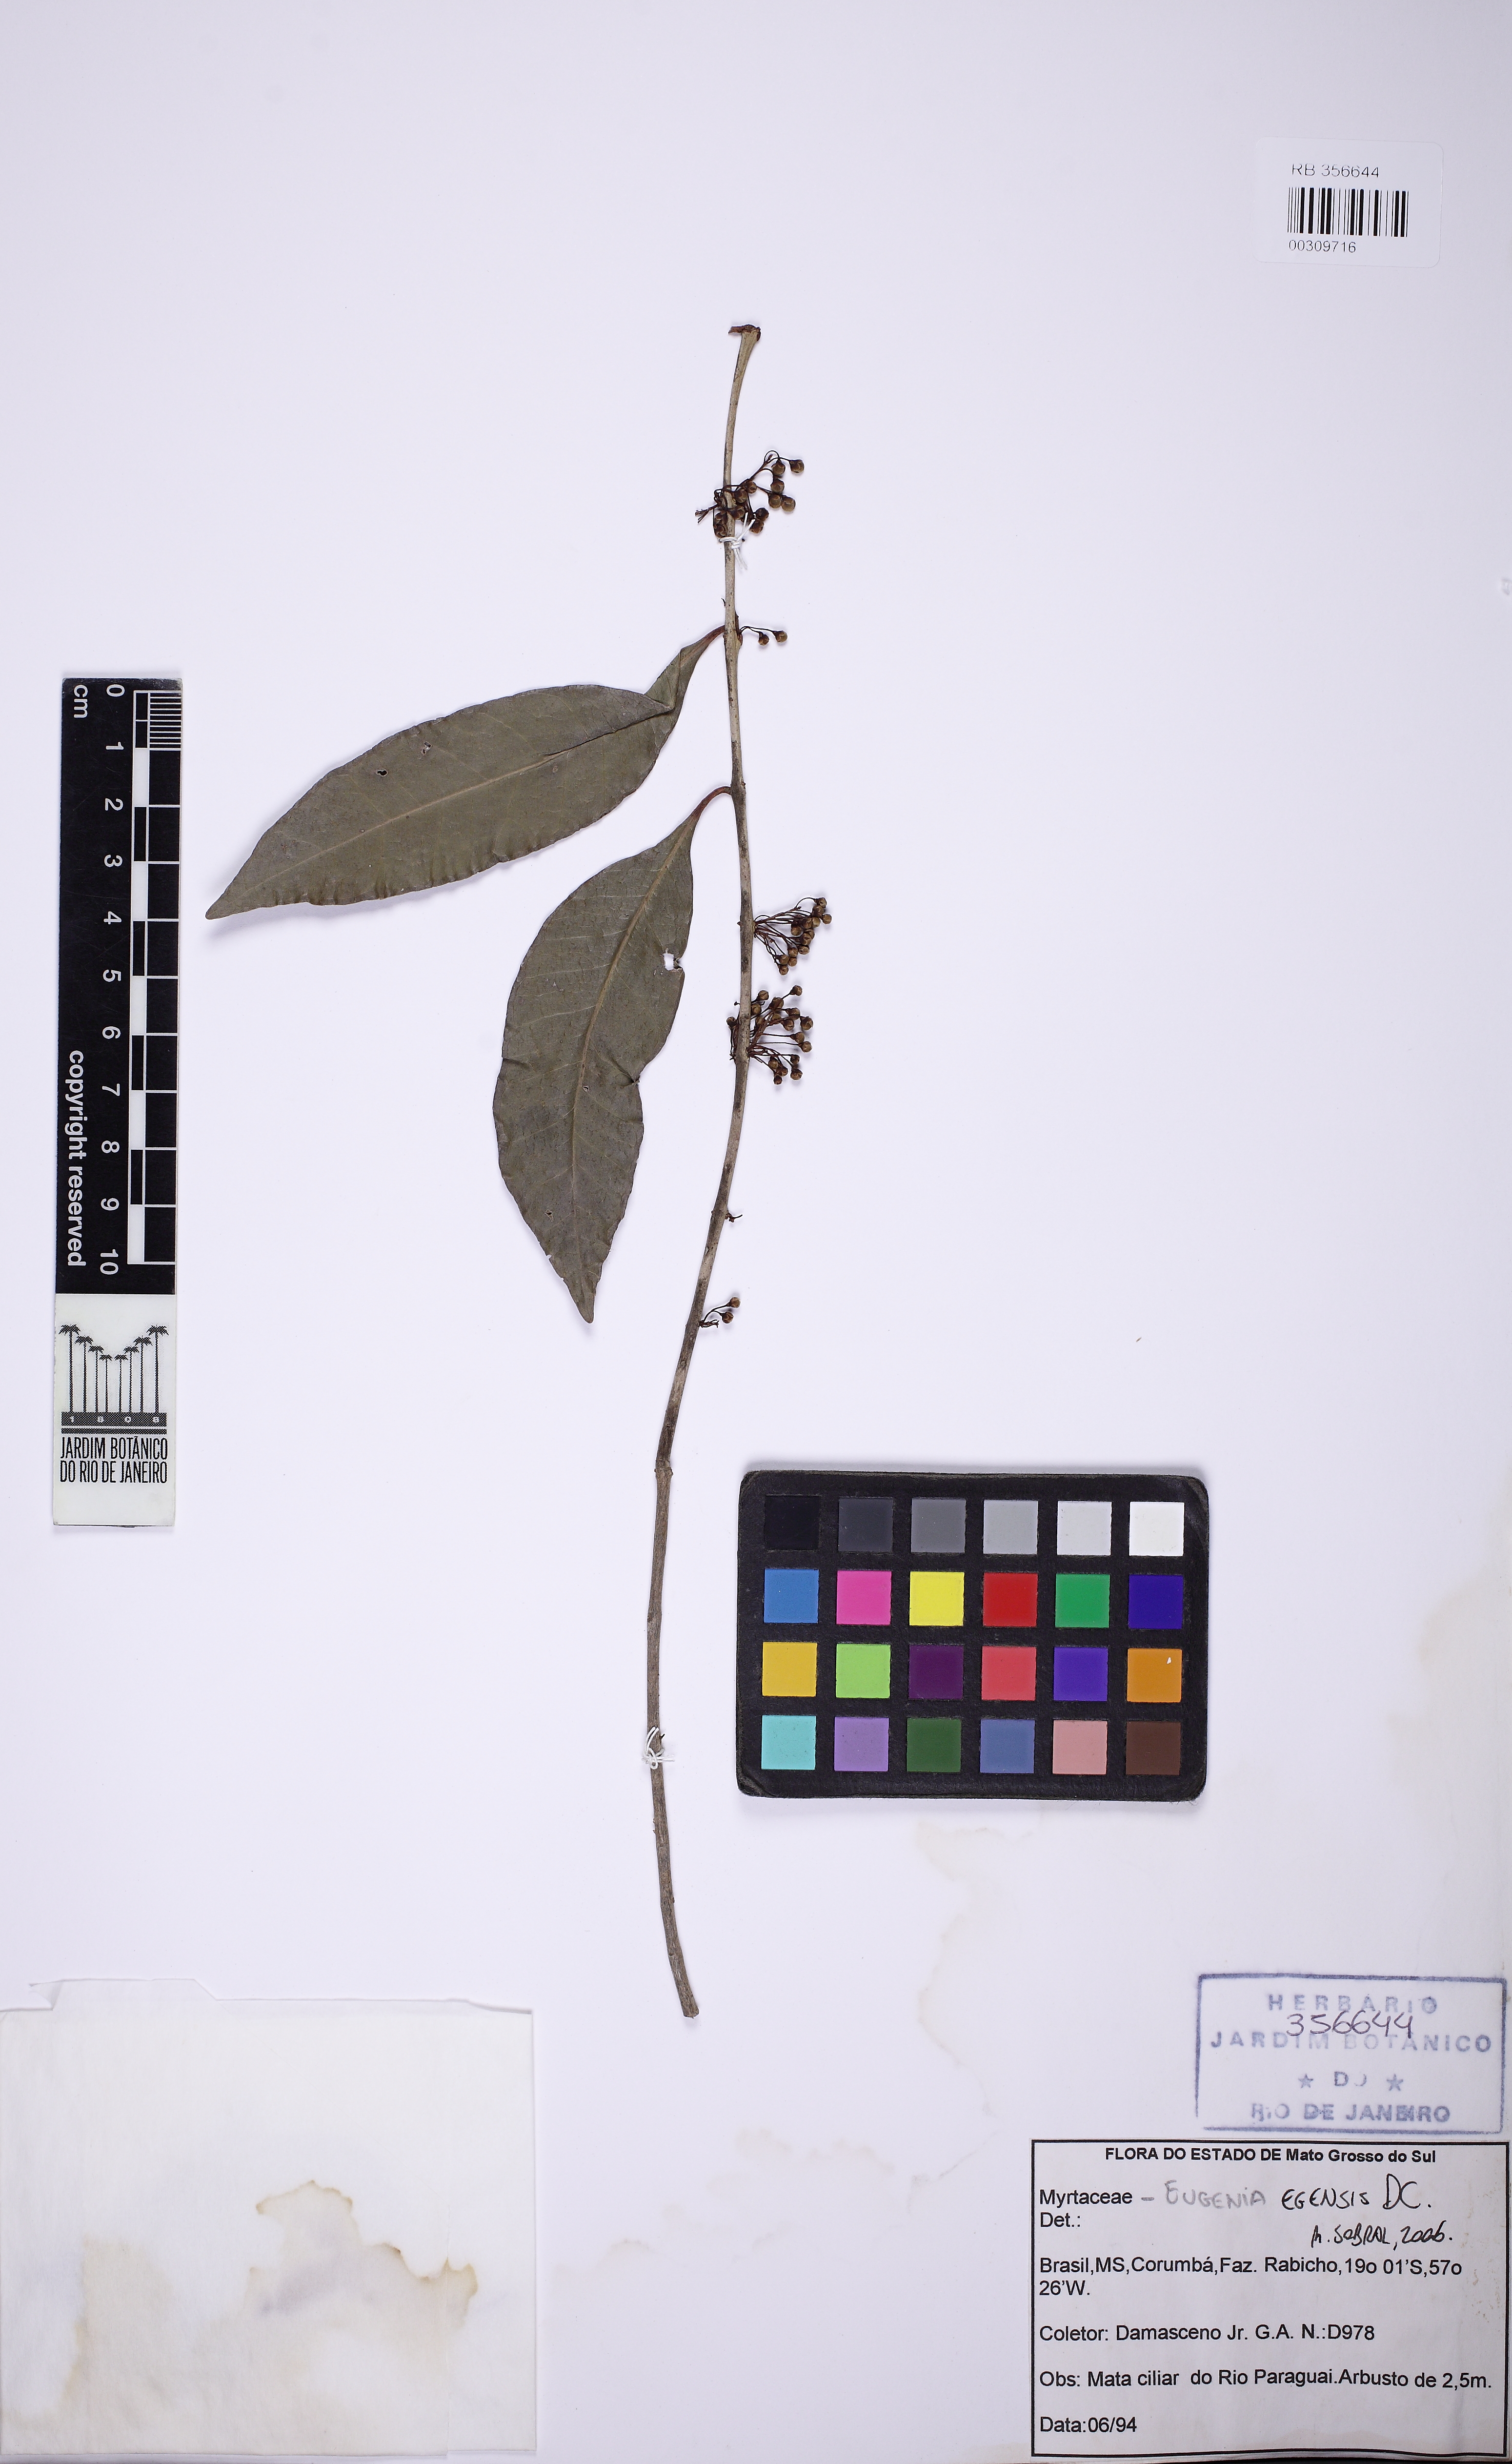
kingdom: Plantae
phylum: Tracheophyta
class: Magnoliopsida
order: Myrtales
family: Myrtaceae
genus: Eugenia
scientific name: Eugenia egensis
